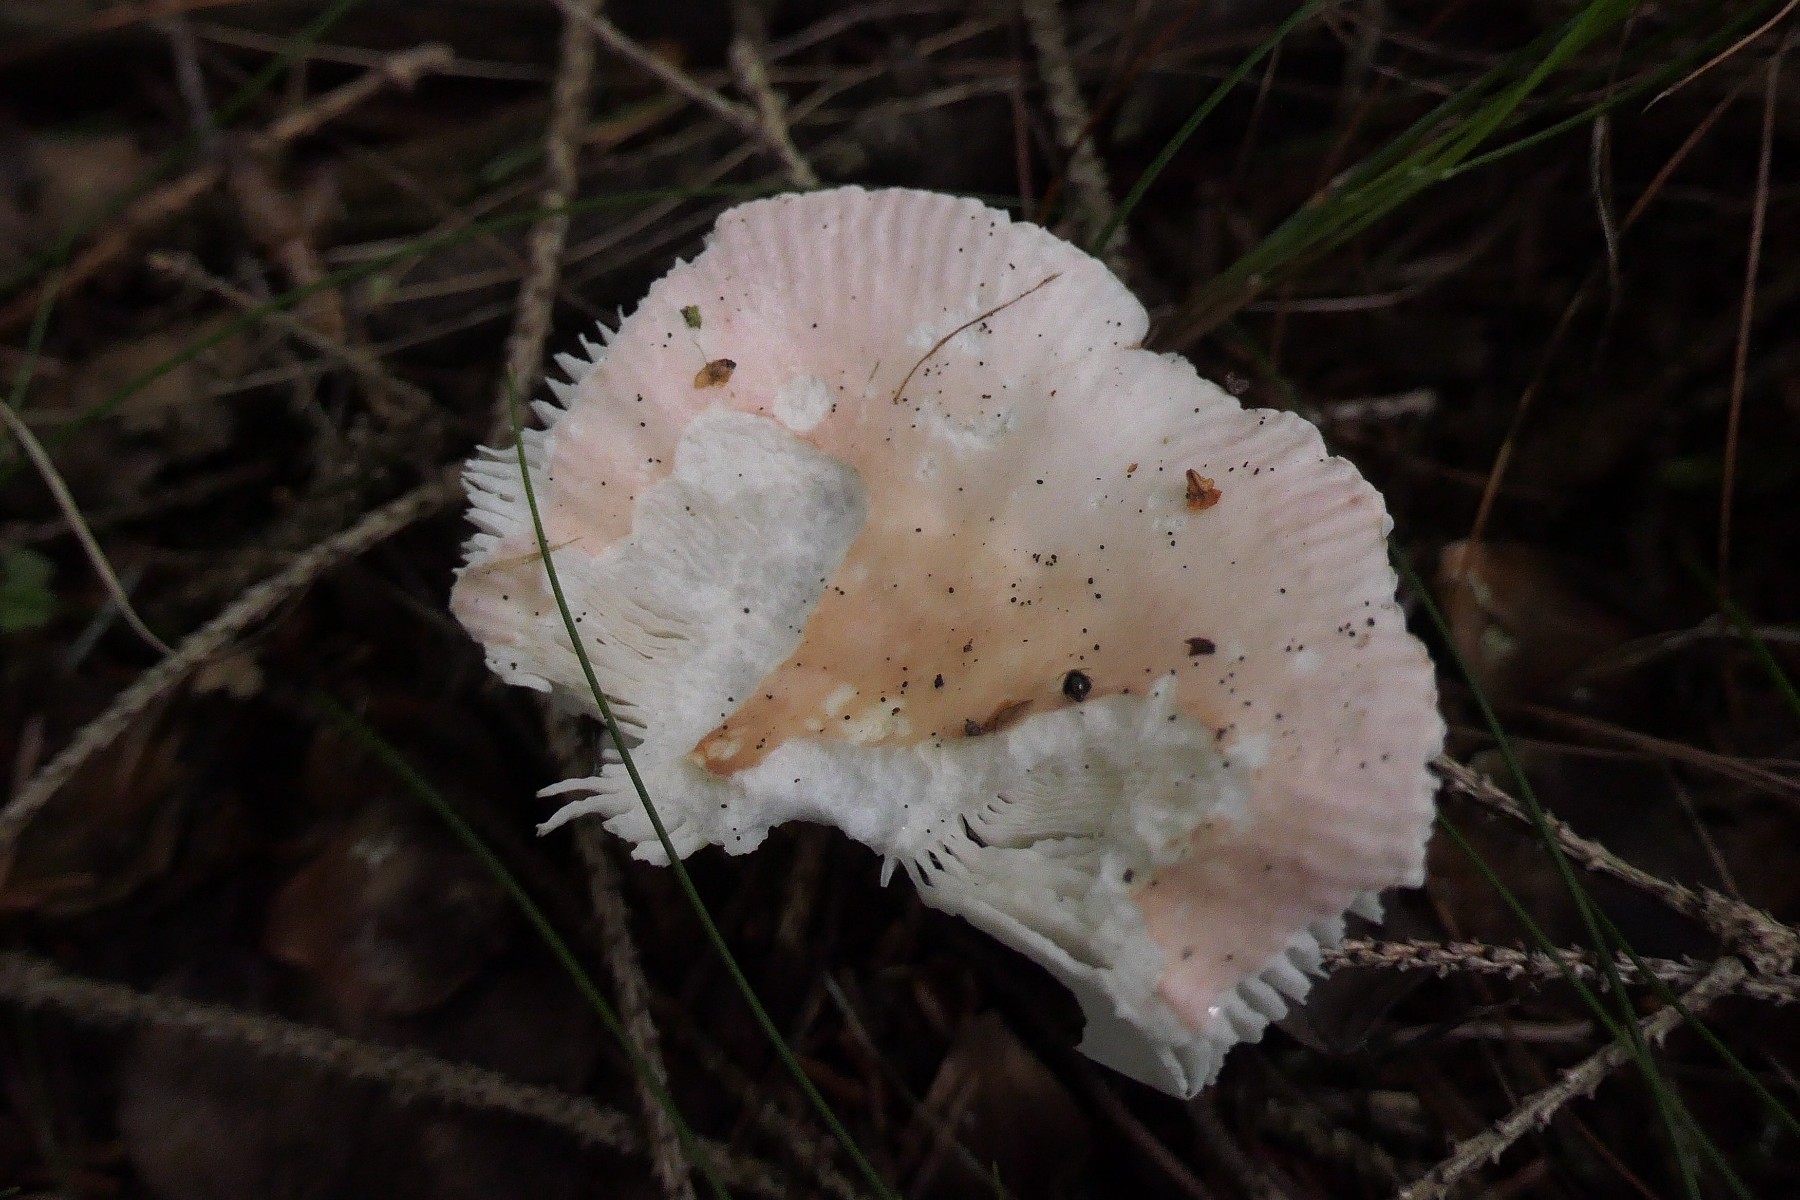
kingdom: Fungi
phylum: Basidiomycota
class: Agaricomycetes
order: Russulales
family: Russulaceae
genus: Russula
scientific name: Russula betularum
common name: bleg gift-skørhat
